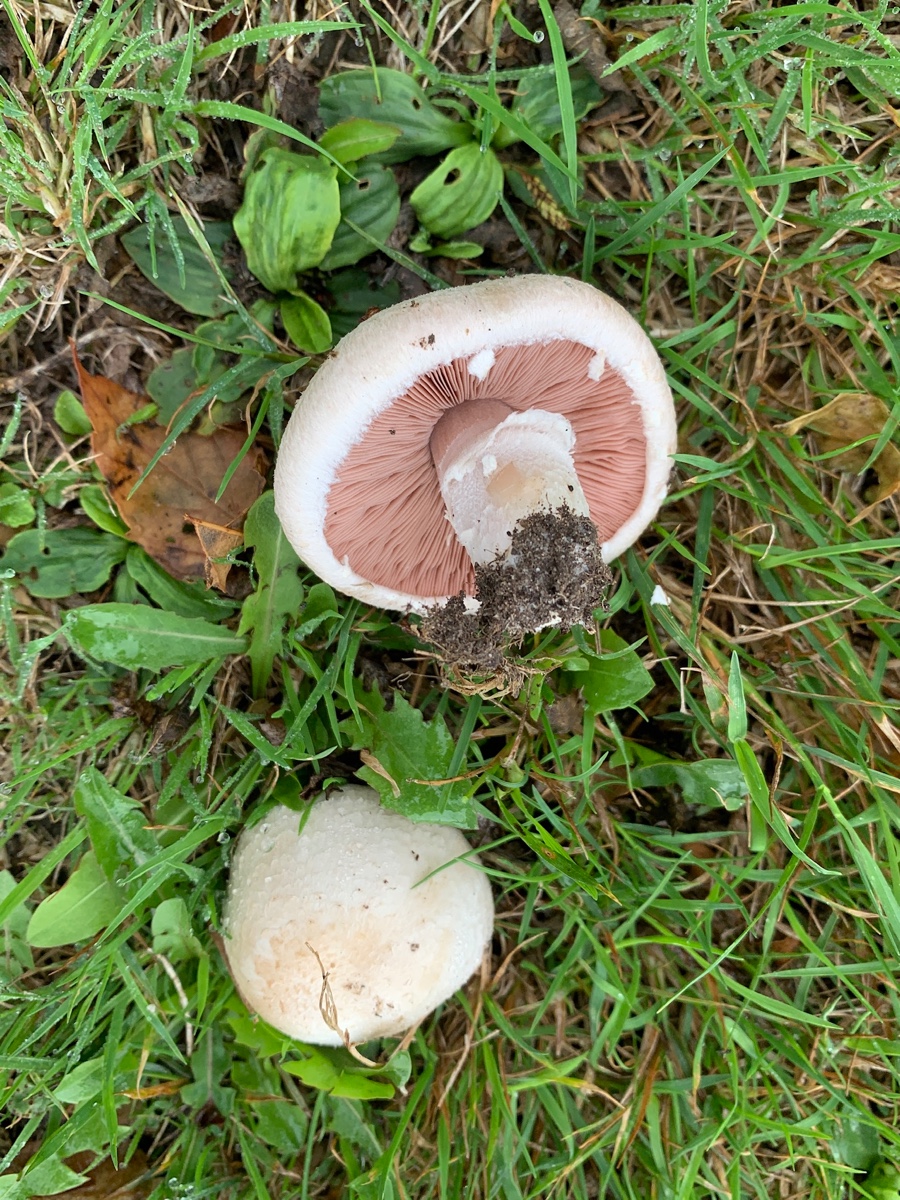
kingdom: Fungi
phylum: Basidiomycota
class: Agaricomycetes
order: Agaricales
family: Agaricaceae
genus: Agaricus
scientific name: Agaricus campestris
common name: mark-champignon
